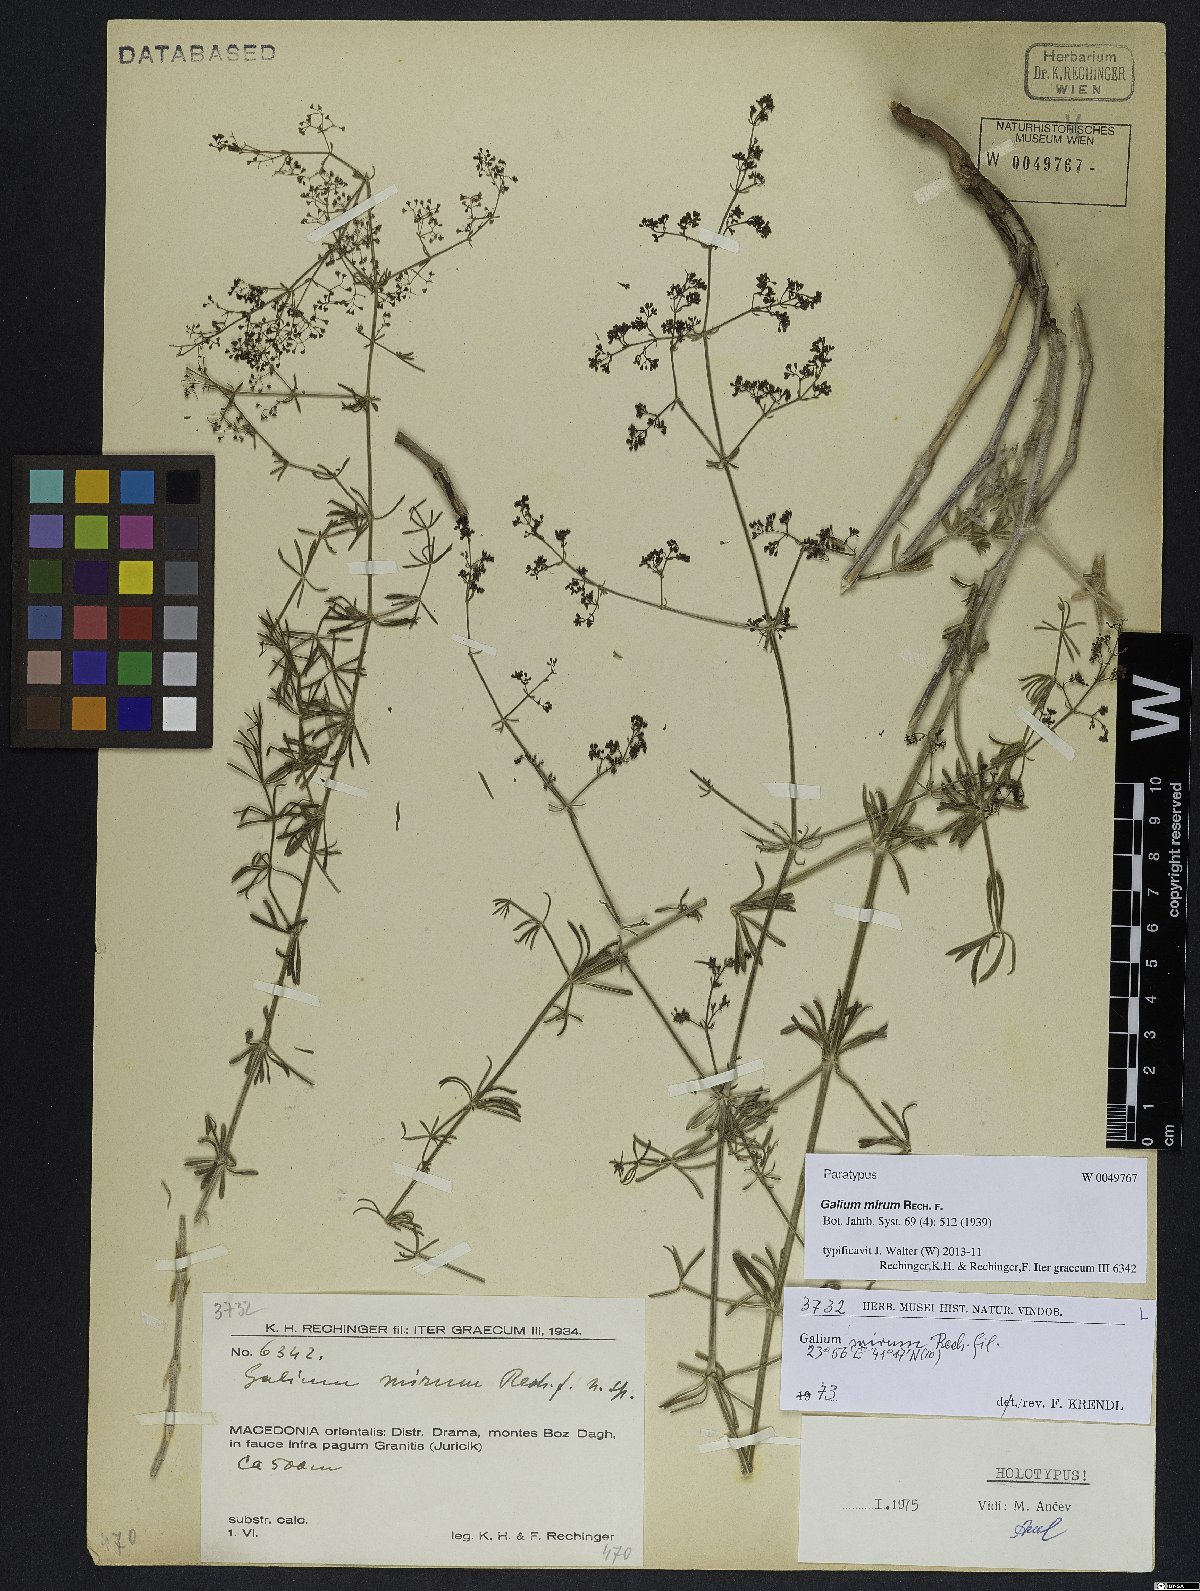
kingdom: Plantae
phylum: Tracheophyta
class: Magnoliopsida
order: Gentianales
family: Rubiaceae
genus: Galium
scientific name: Galium mirum
